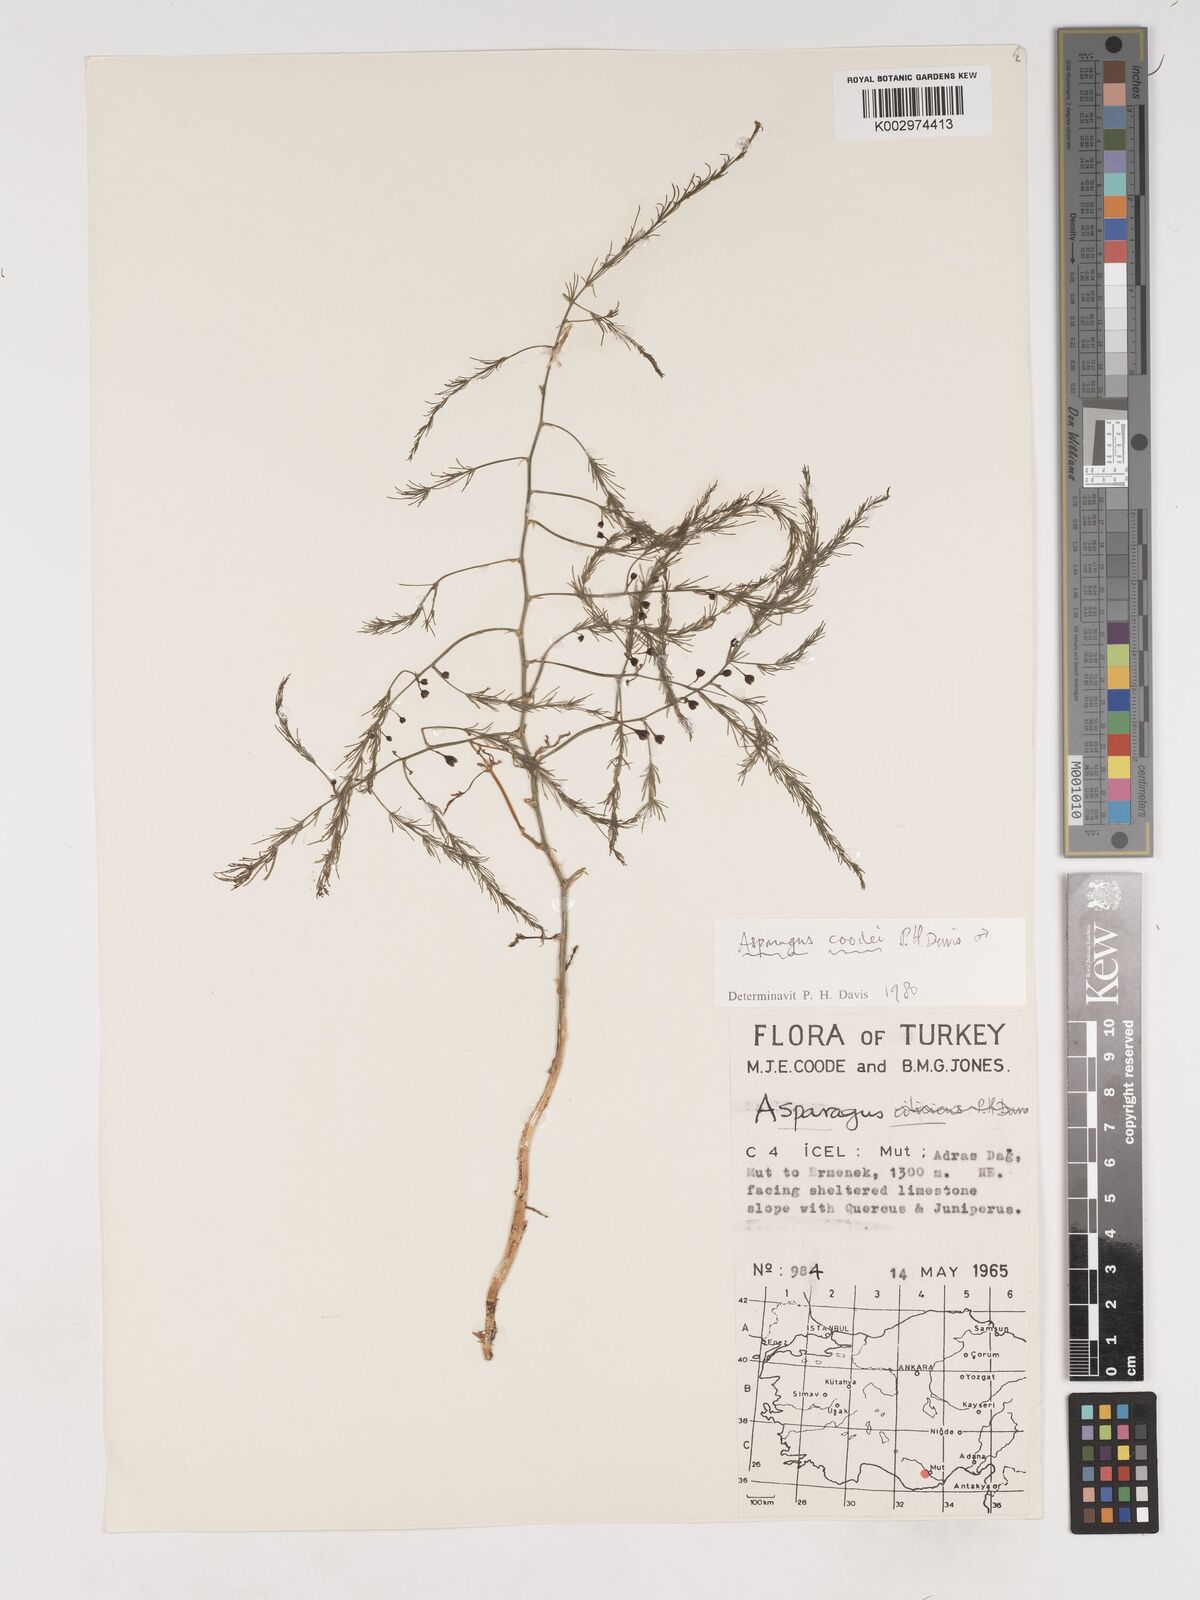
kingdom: Plantae
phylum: Tracheophyta
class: Liliopsida
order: Asparagales
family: Asparagaceae
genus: Asparagus
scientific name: Asparagus coodei
